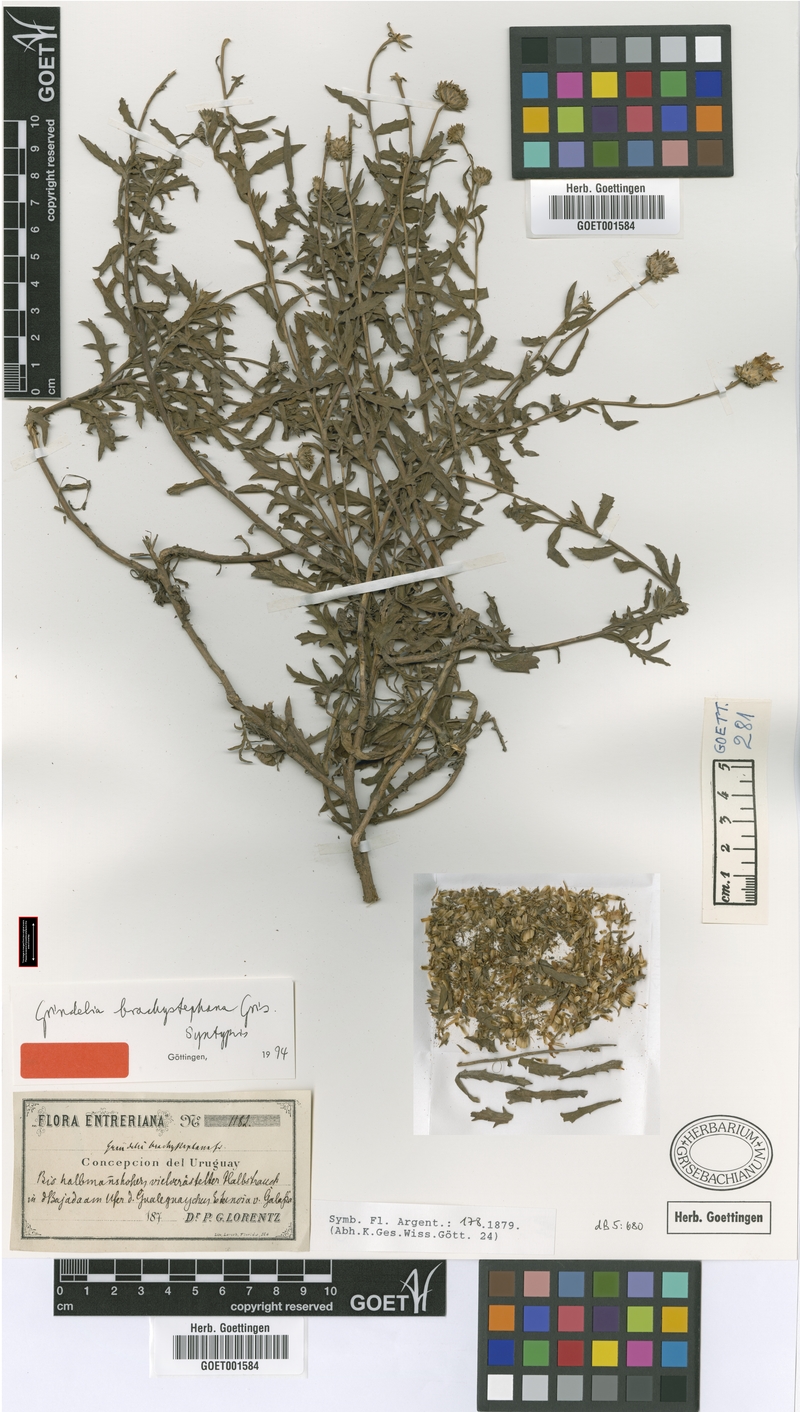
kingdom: Plantae
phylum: Tracheophyta
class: Magnoliopsida
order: Asterales
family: Asteraceae
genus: Grindelia
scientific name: Grindelia brachystephana
